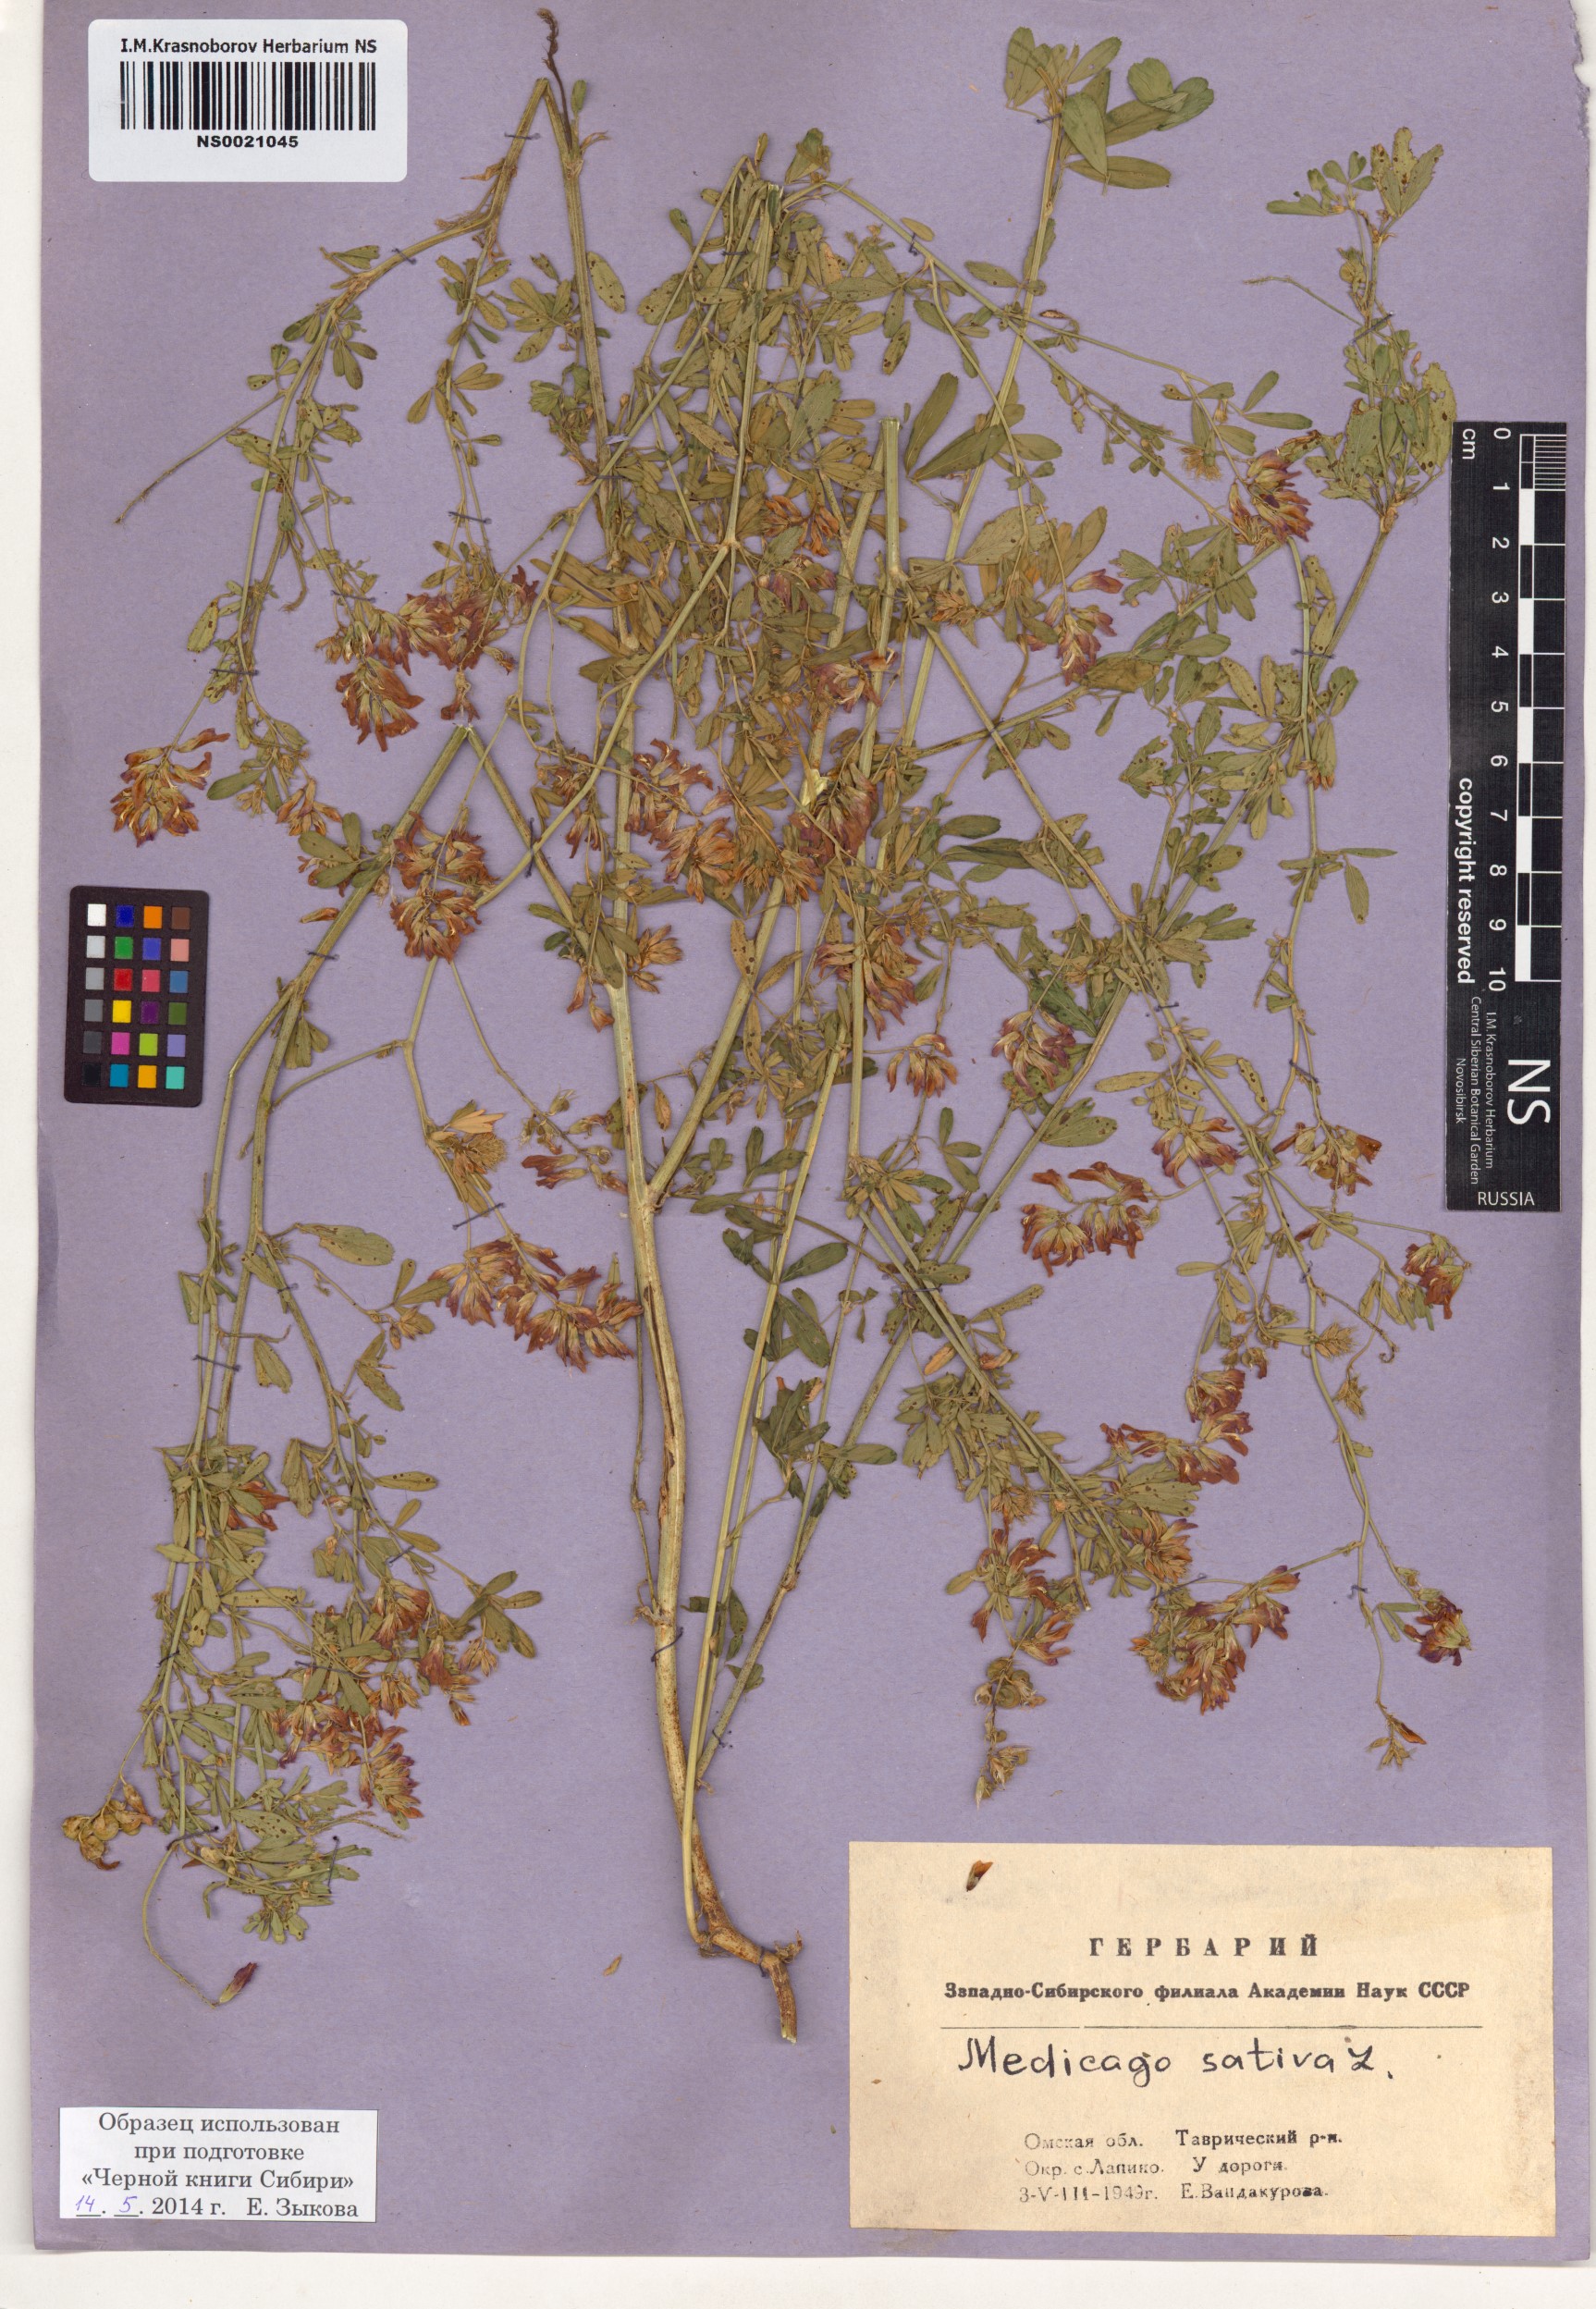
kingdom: Plantae
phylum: Tracheophyta
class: Magnoliopsida
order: Fabales
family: Fabaceae
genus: Medicago
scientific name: Medicago sativa
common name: Alfalfa
